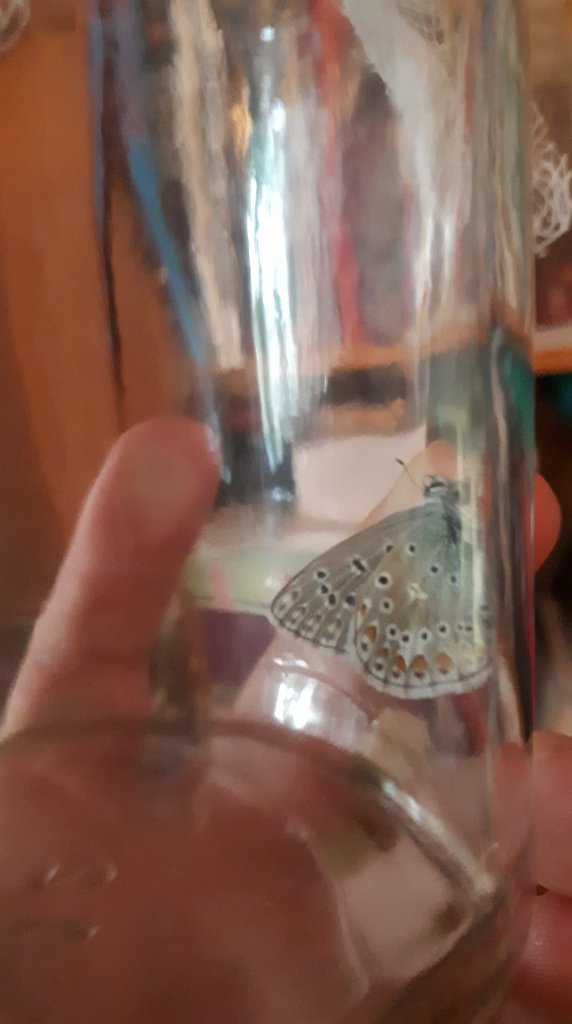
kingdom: Animalia
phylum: Arthropoda
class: Insecta
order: Lepidoptera
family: Lycaenidae
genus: Polyommatus
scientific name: Polyommatus icarus
